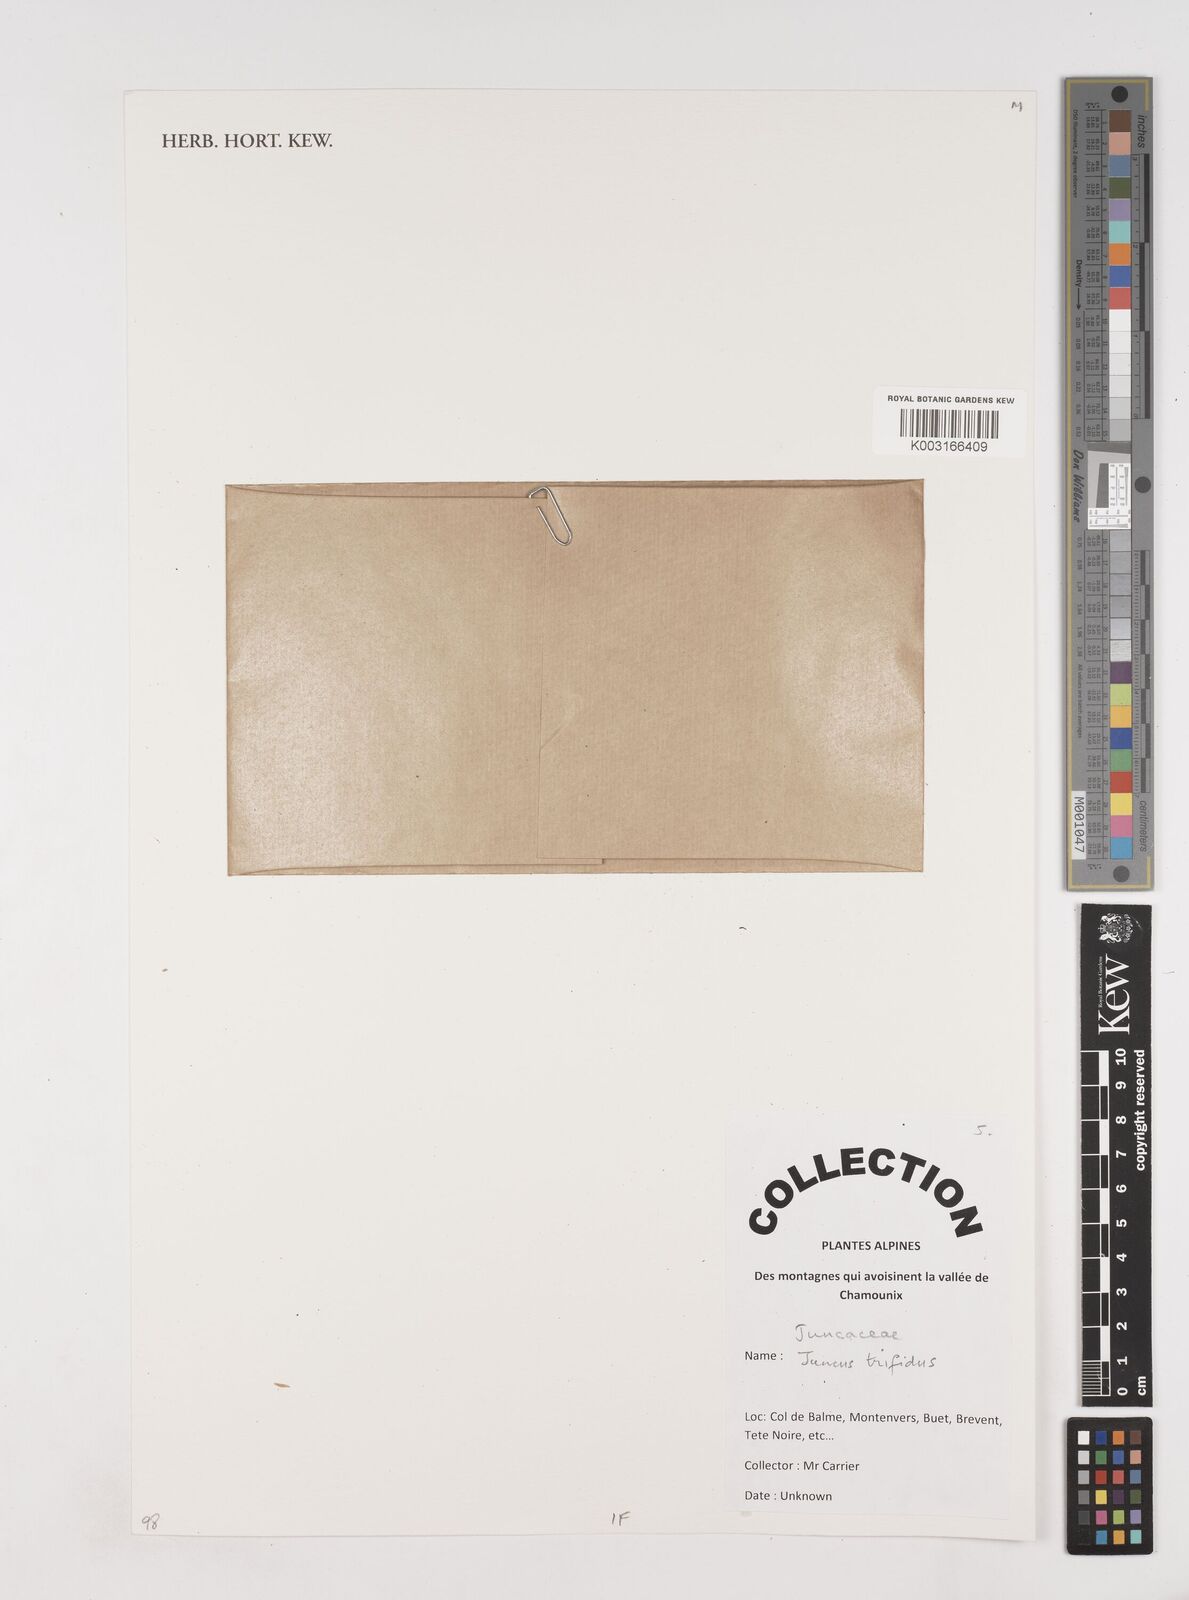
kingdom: Plantae
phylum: Tracheophyta
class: Liliopsida
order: Poales
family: Juncaceae
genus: Oreojuncus
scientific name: Oreojuncus trifidus
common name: Highland rush
